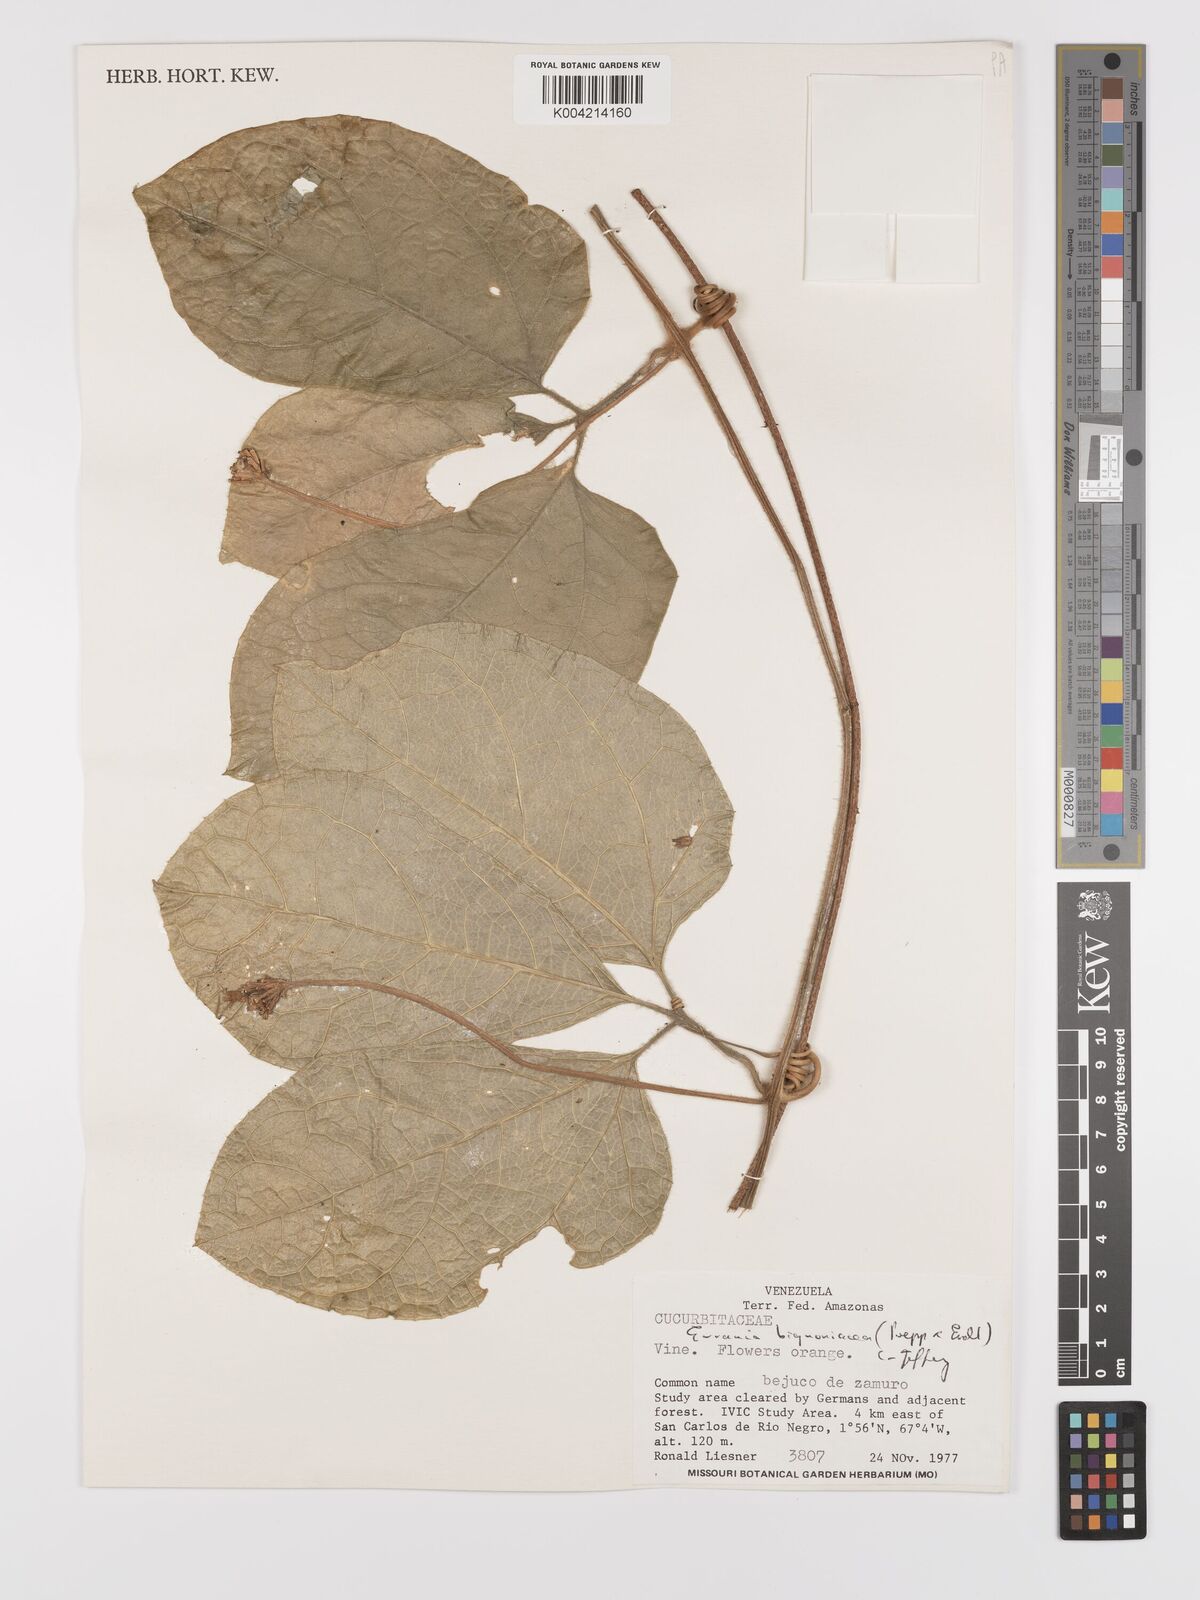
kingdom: Plantae
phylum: Tracheophyta
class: Magnoliopsida
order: Cucurbitales
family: Cucurbitaceae
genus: Gurania
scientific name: Gurania bignoniacea
